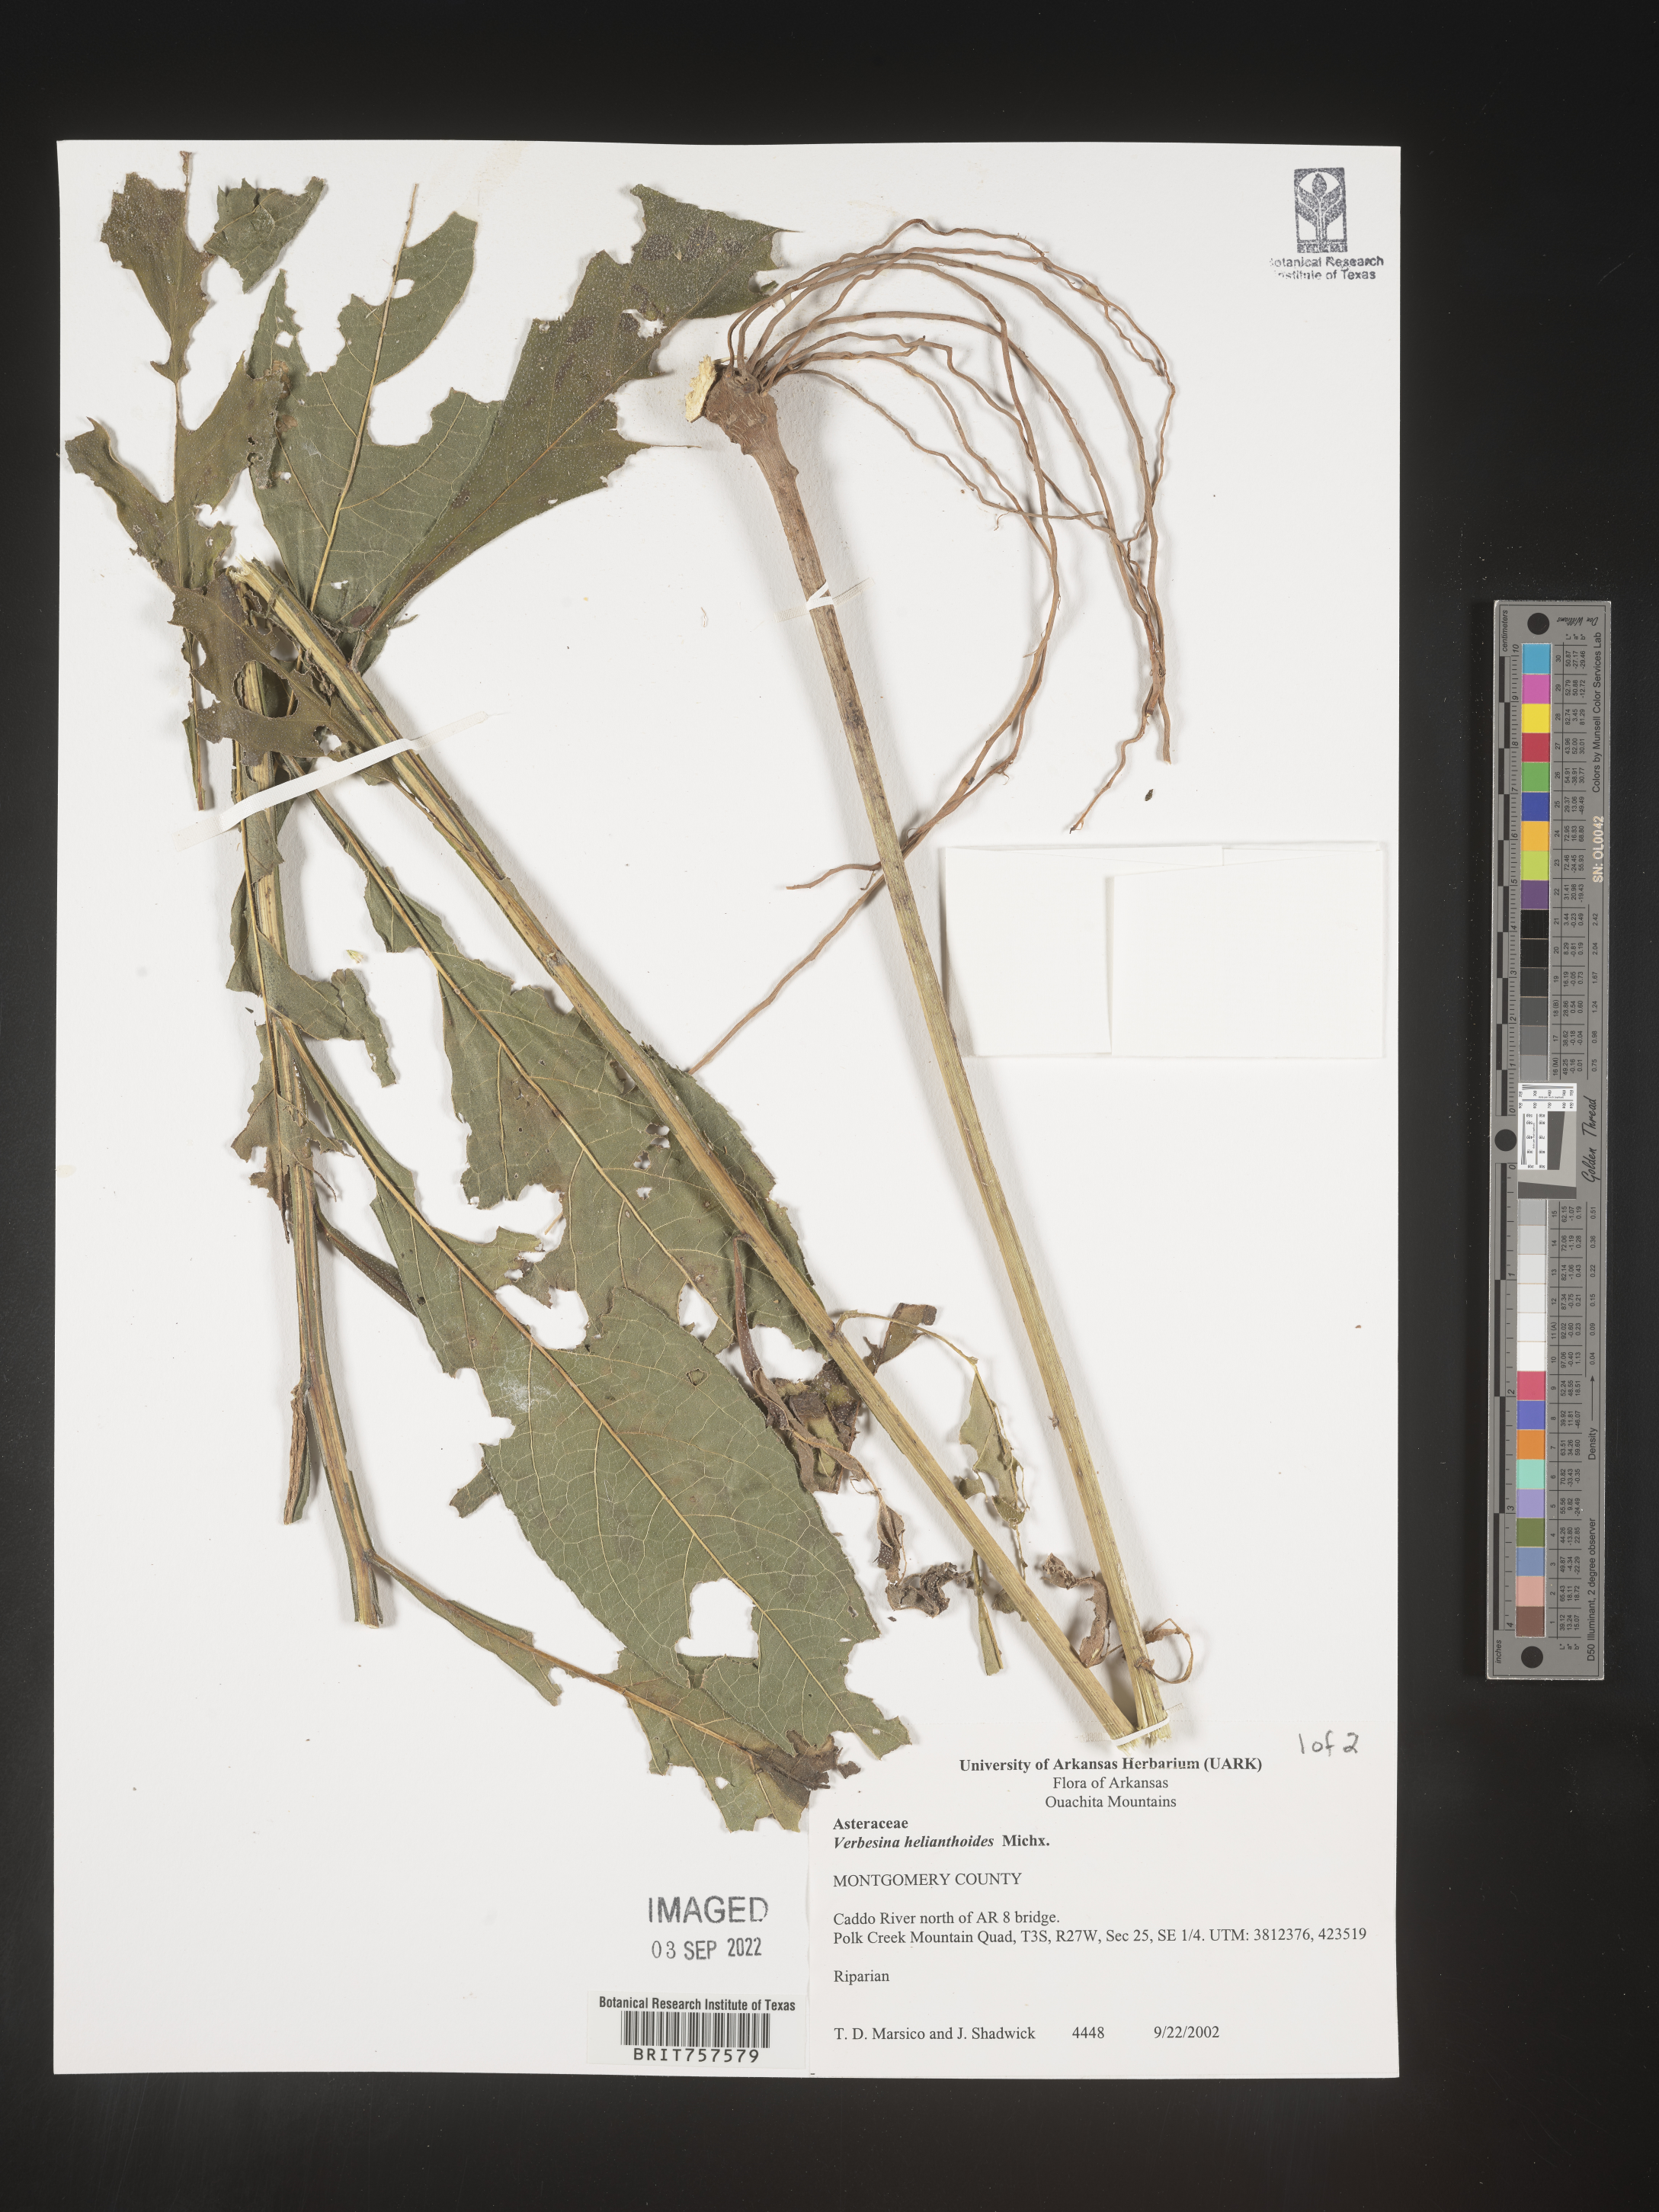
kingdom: Plantae
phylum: Tracheophyta
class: Magnoliopsida
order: Asterales
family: Asteraceae
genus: Verbesina
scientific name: Verbesina helianthoides
